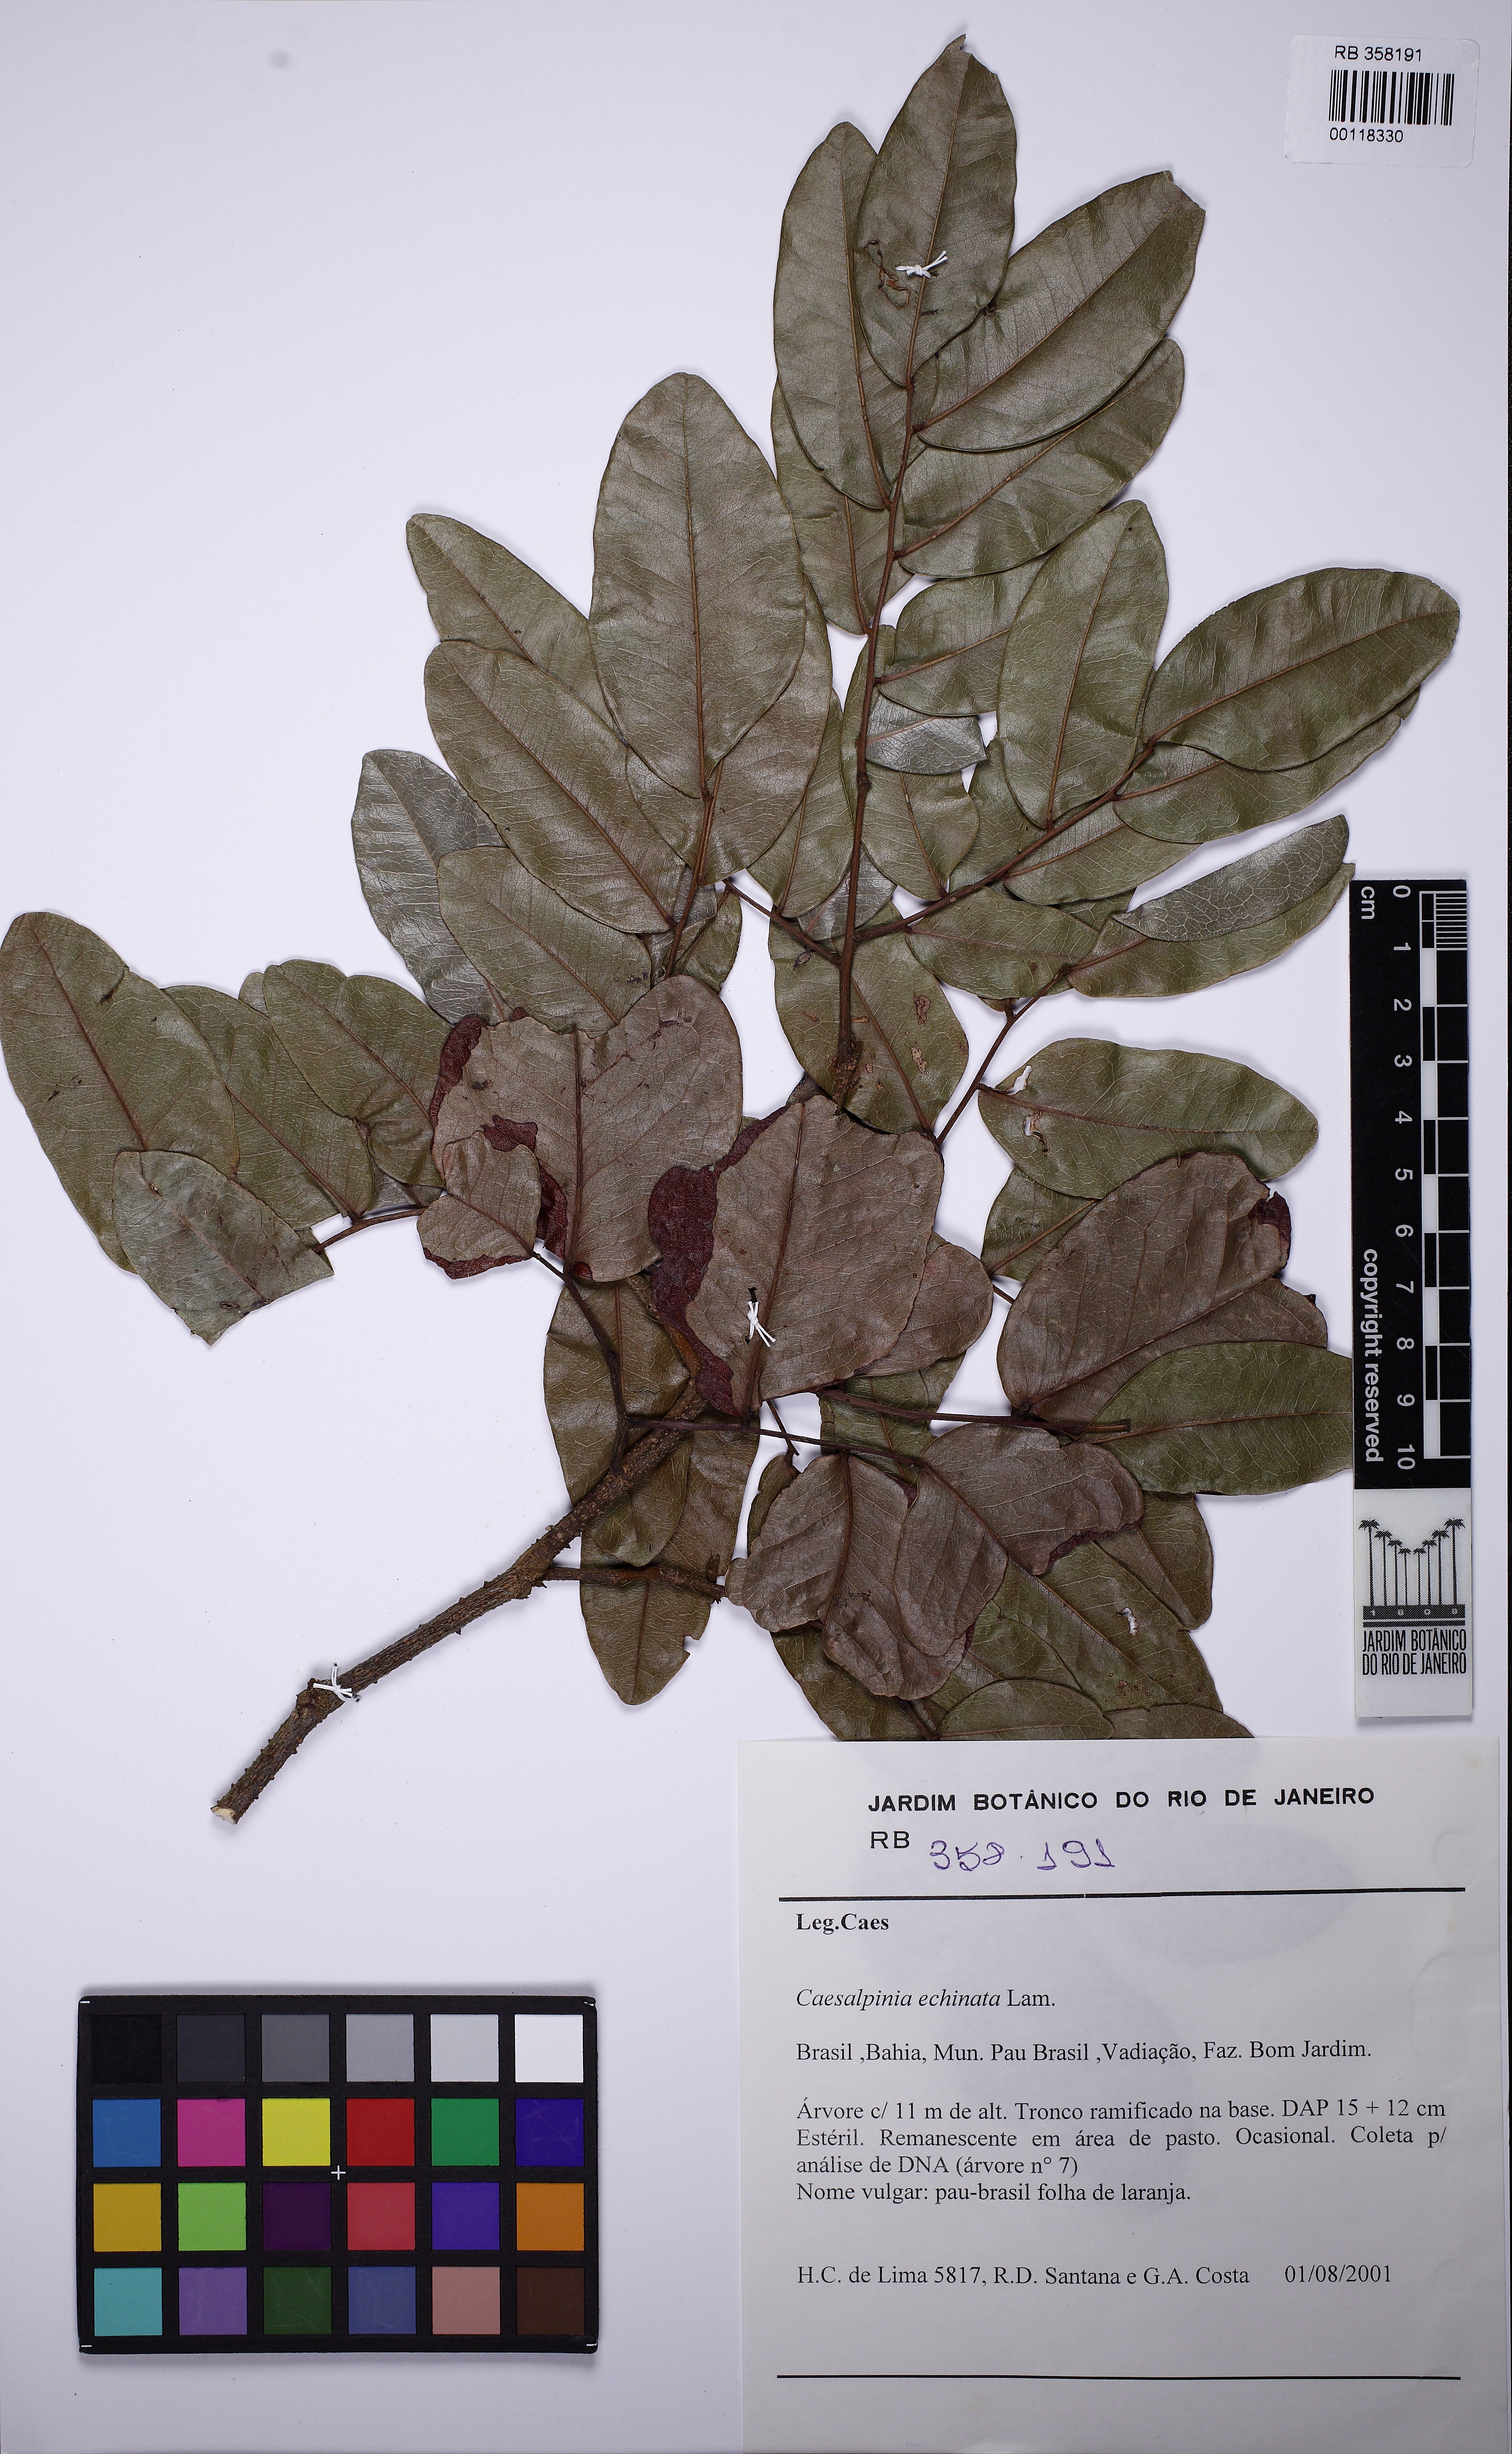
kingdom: Plantae
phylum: Tracheophyta
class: Magnoliopsida
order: Fabales
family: Fabaceae
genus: Paubrasilia
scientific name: Paubrasilia echinata
